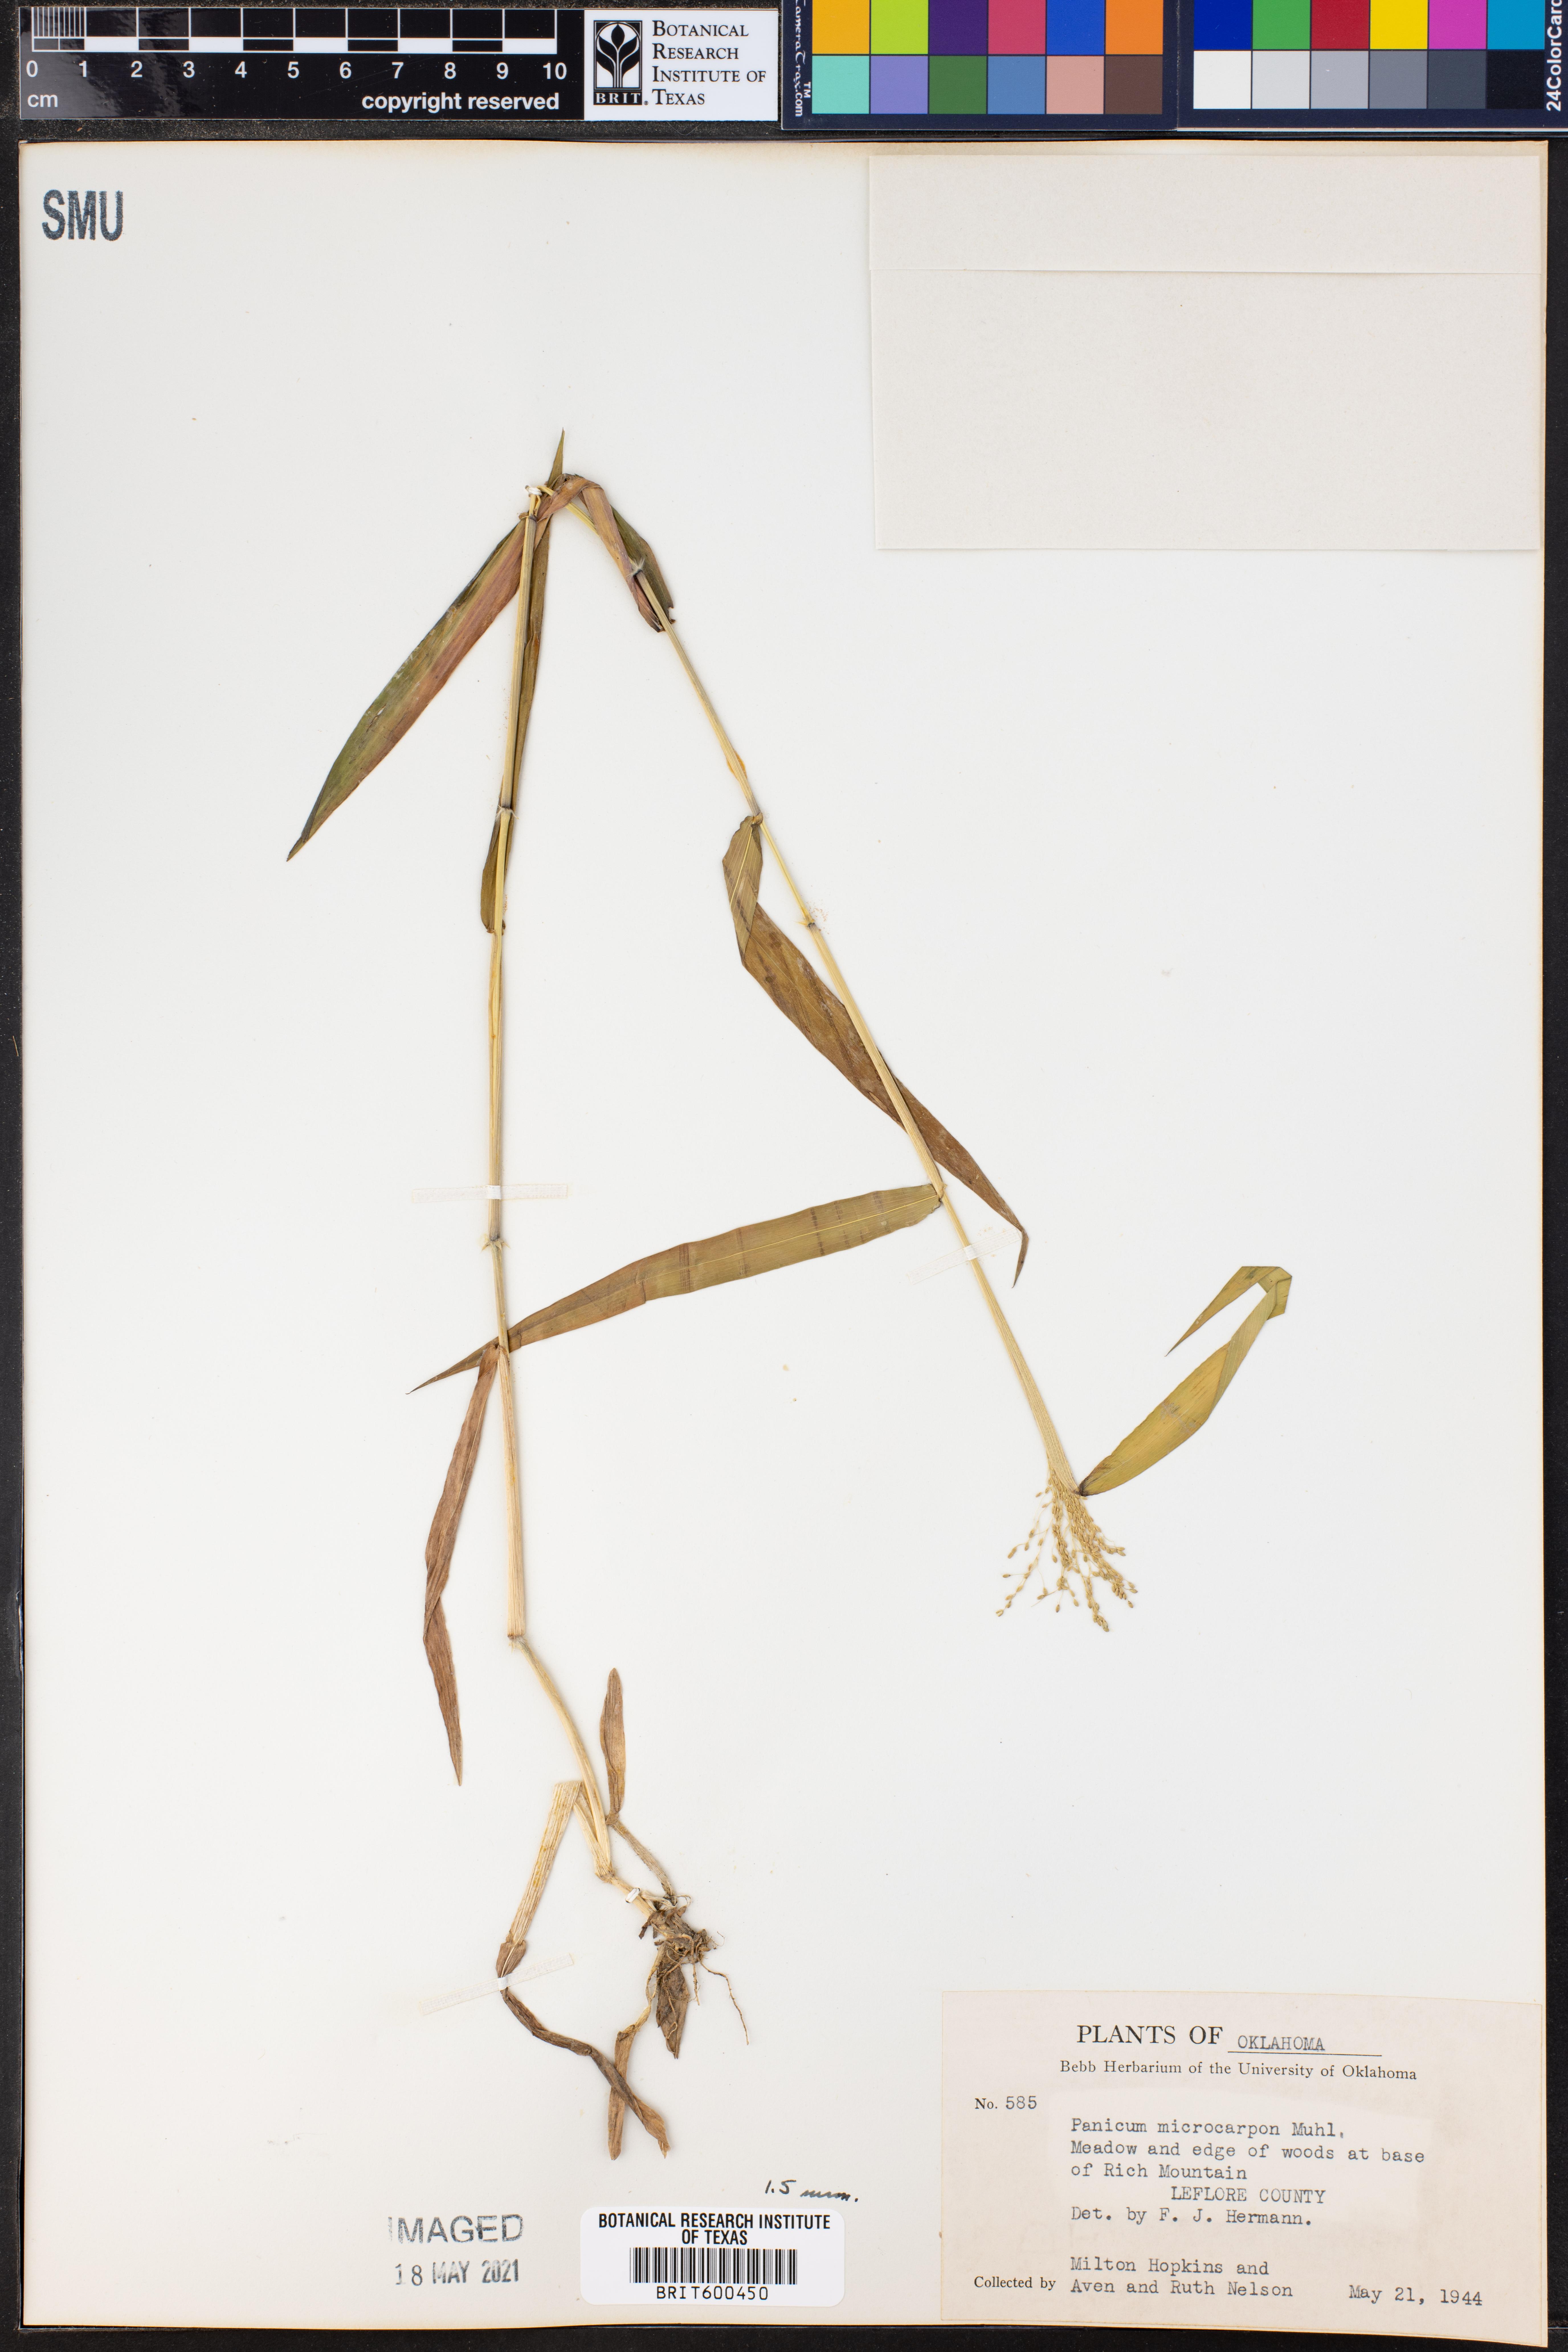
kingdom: Plantae
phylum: Tracheophyta
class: Liliopsida
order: Poales
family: Poaceae
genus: Dichanthelium
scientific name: Dichanthelium polyanthes
